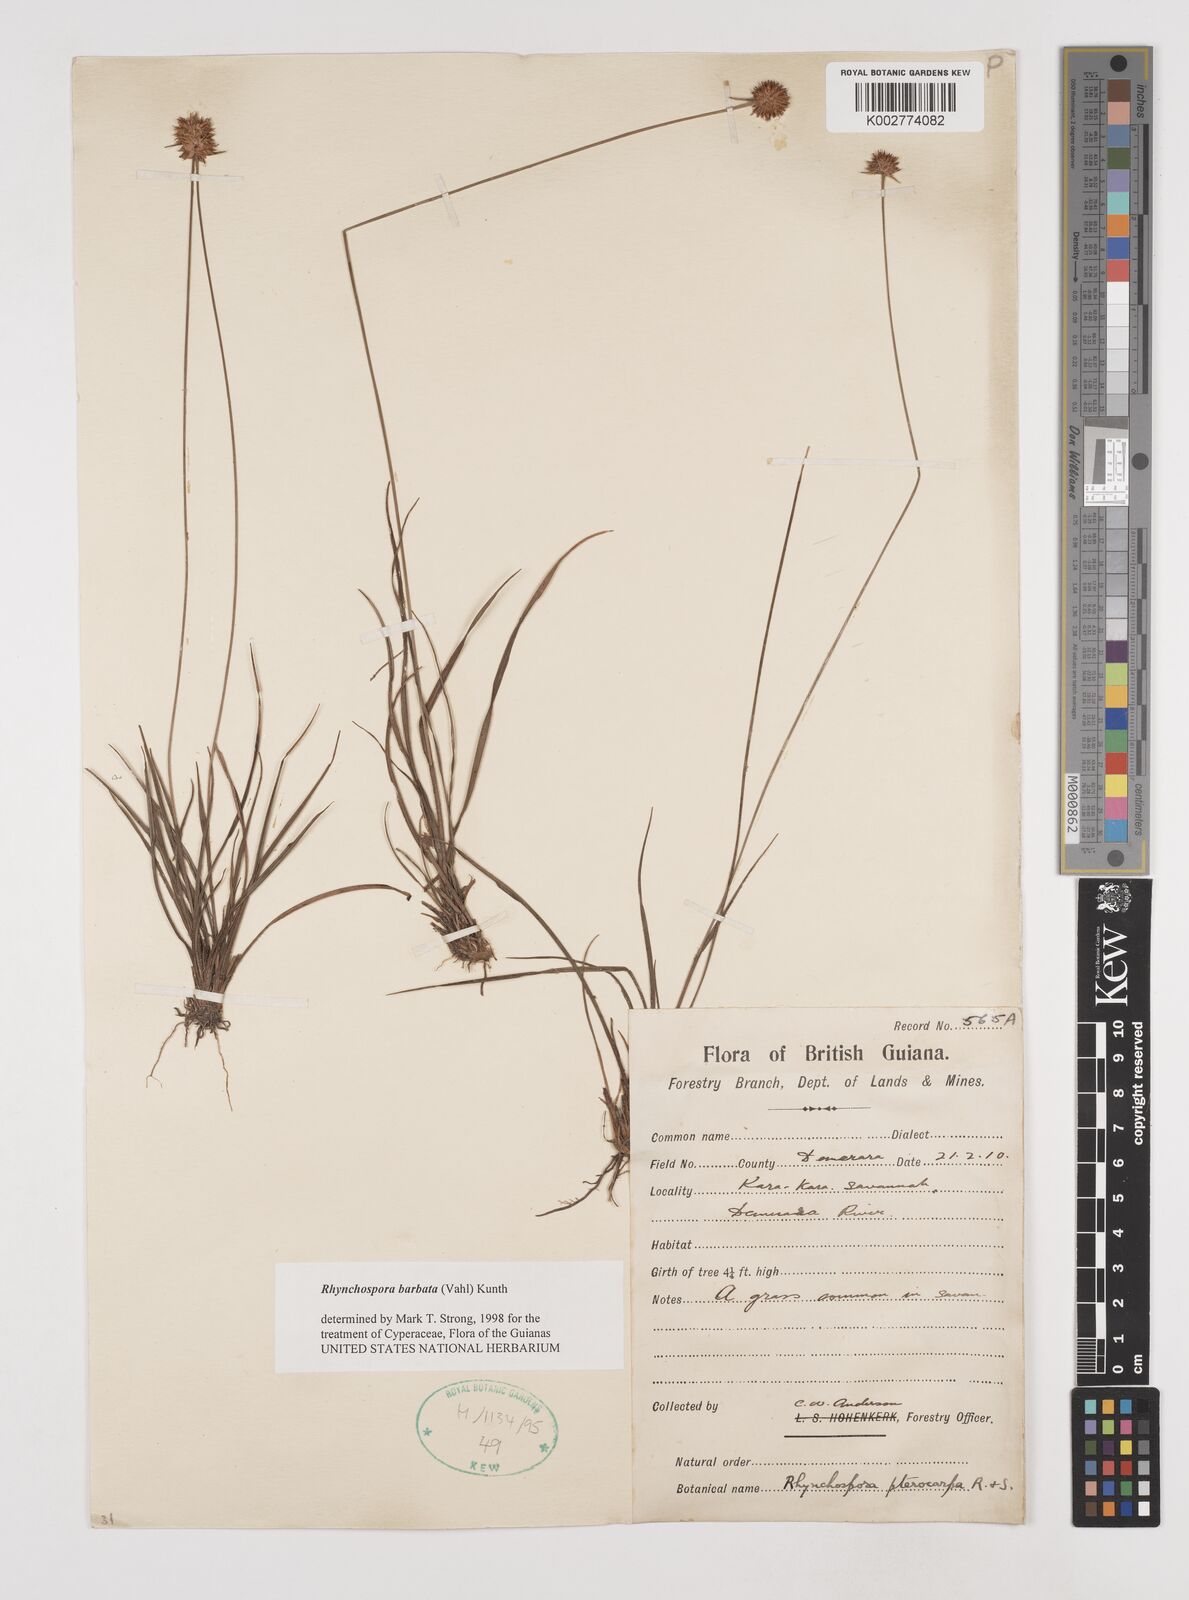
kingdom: Plantae
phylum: Tracheophyta
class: Liliopsida
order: Poales
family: Cyperaceae
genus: Rhynchospora
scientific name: Rhynchospora barbata
